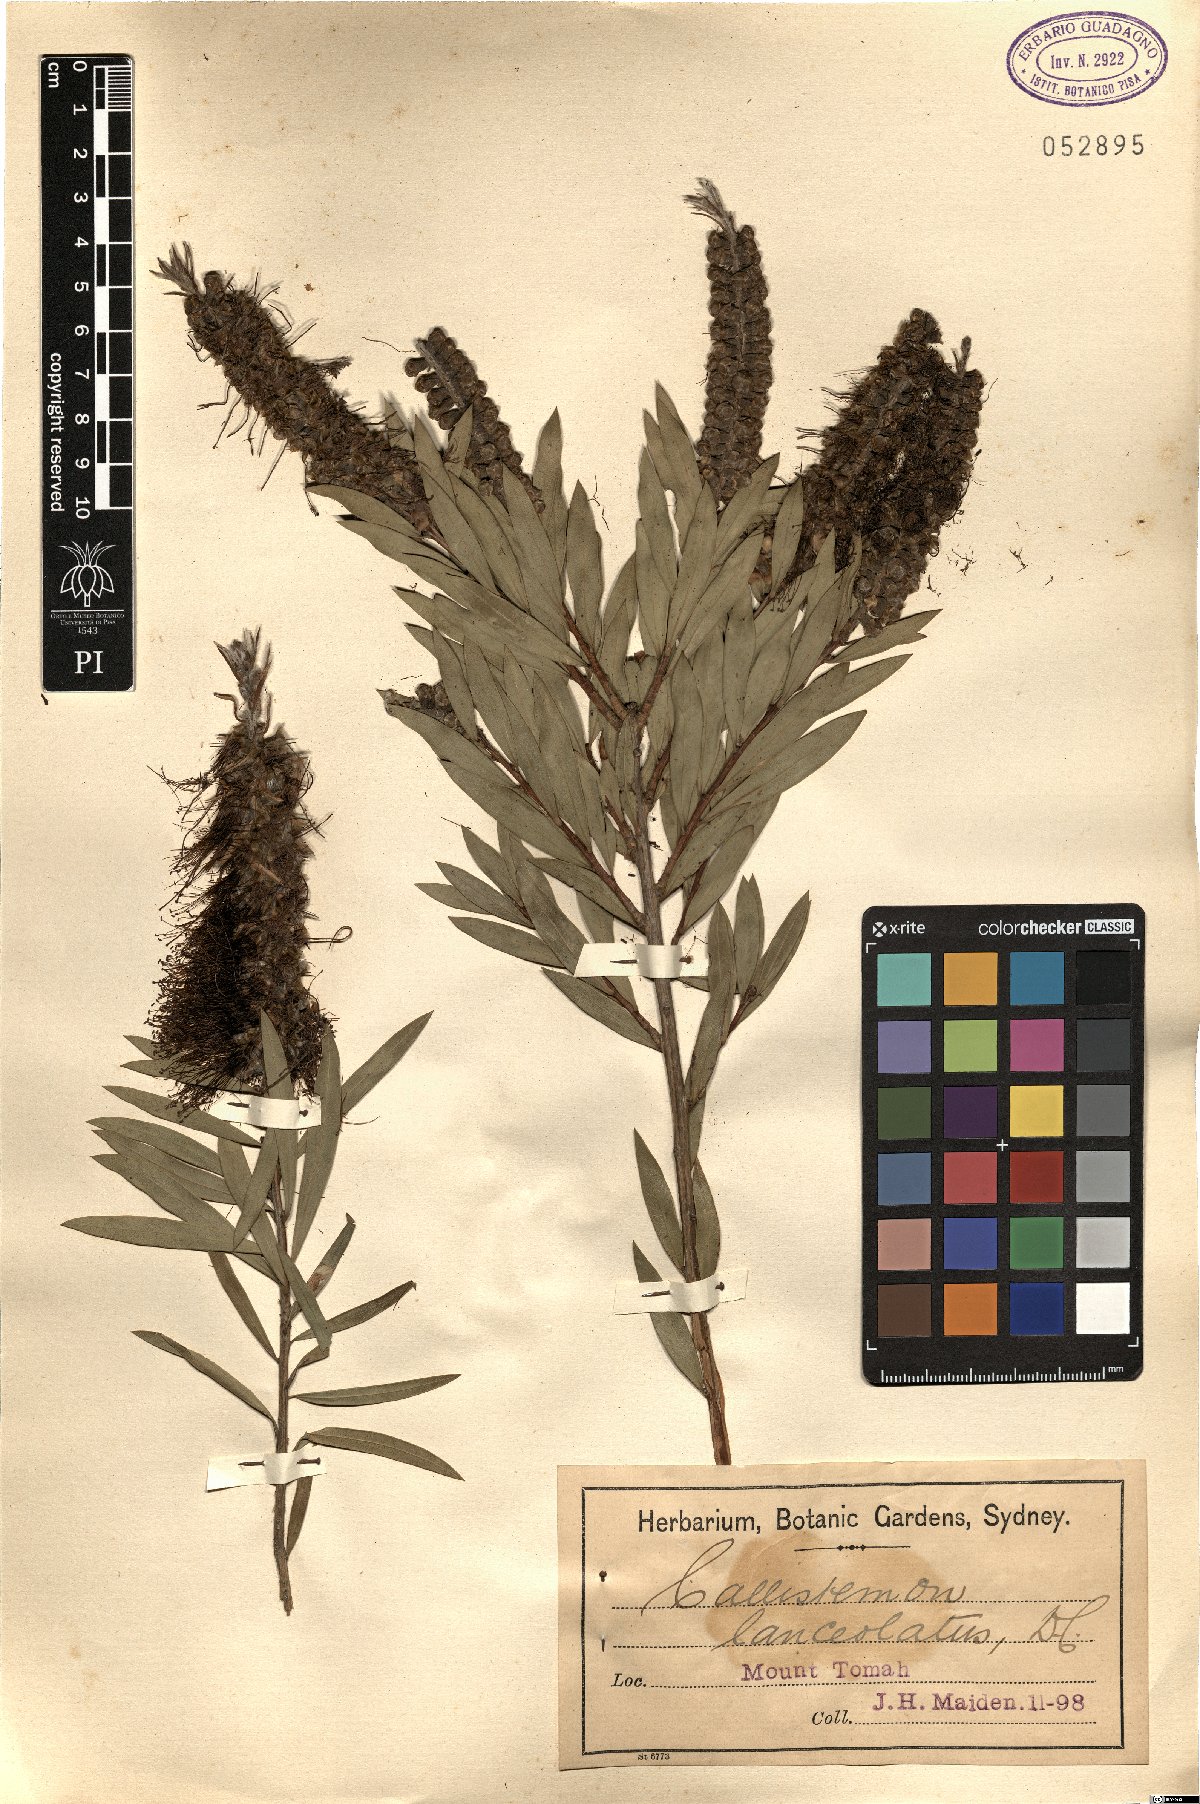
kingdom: Plantae
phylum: Tracheophyta
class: Magnoliopsida
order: Myrtales
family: Myrtaceae
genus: Callistemon
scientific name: Callistemon lanceolatus
